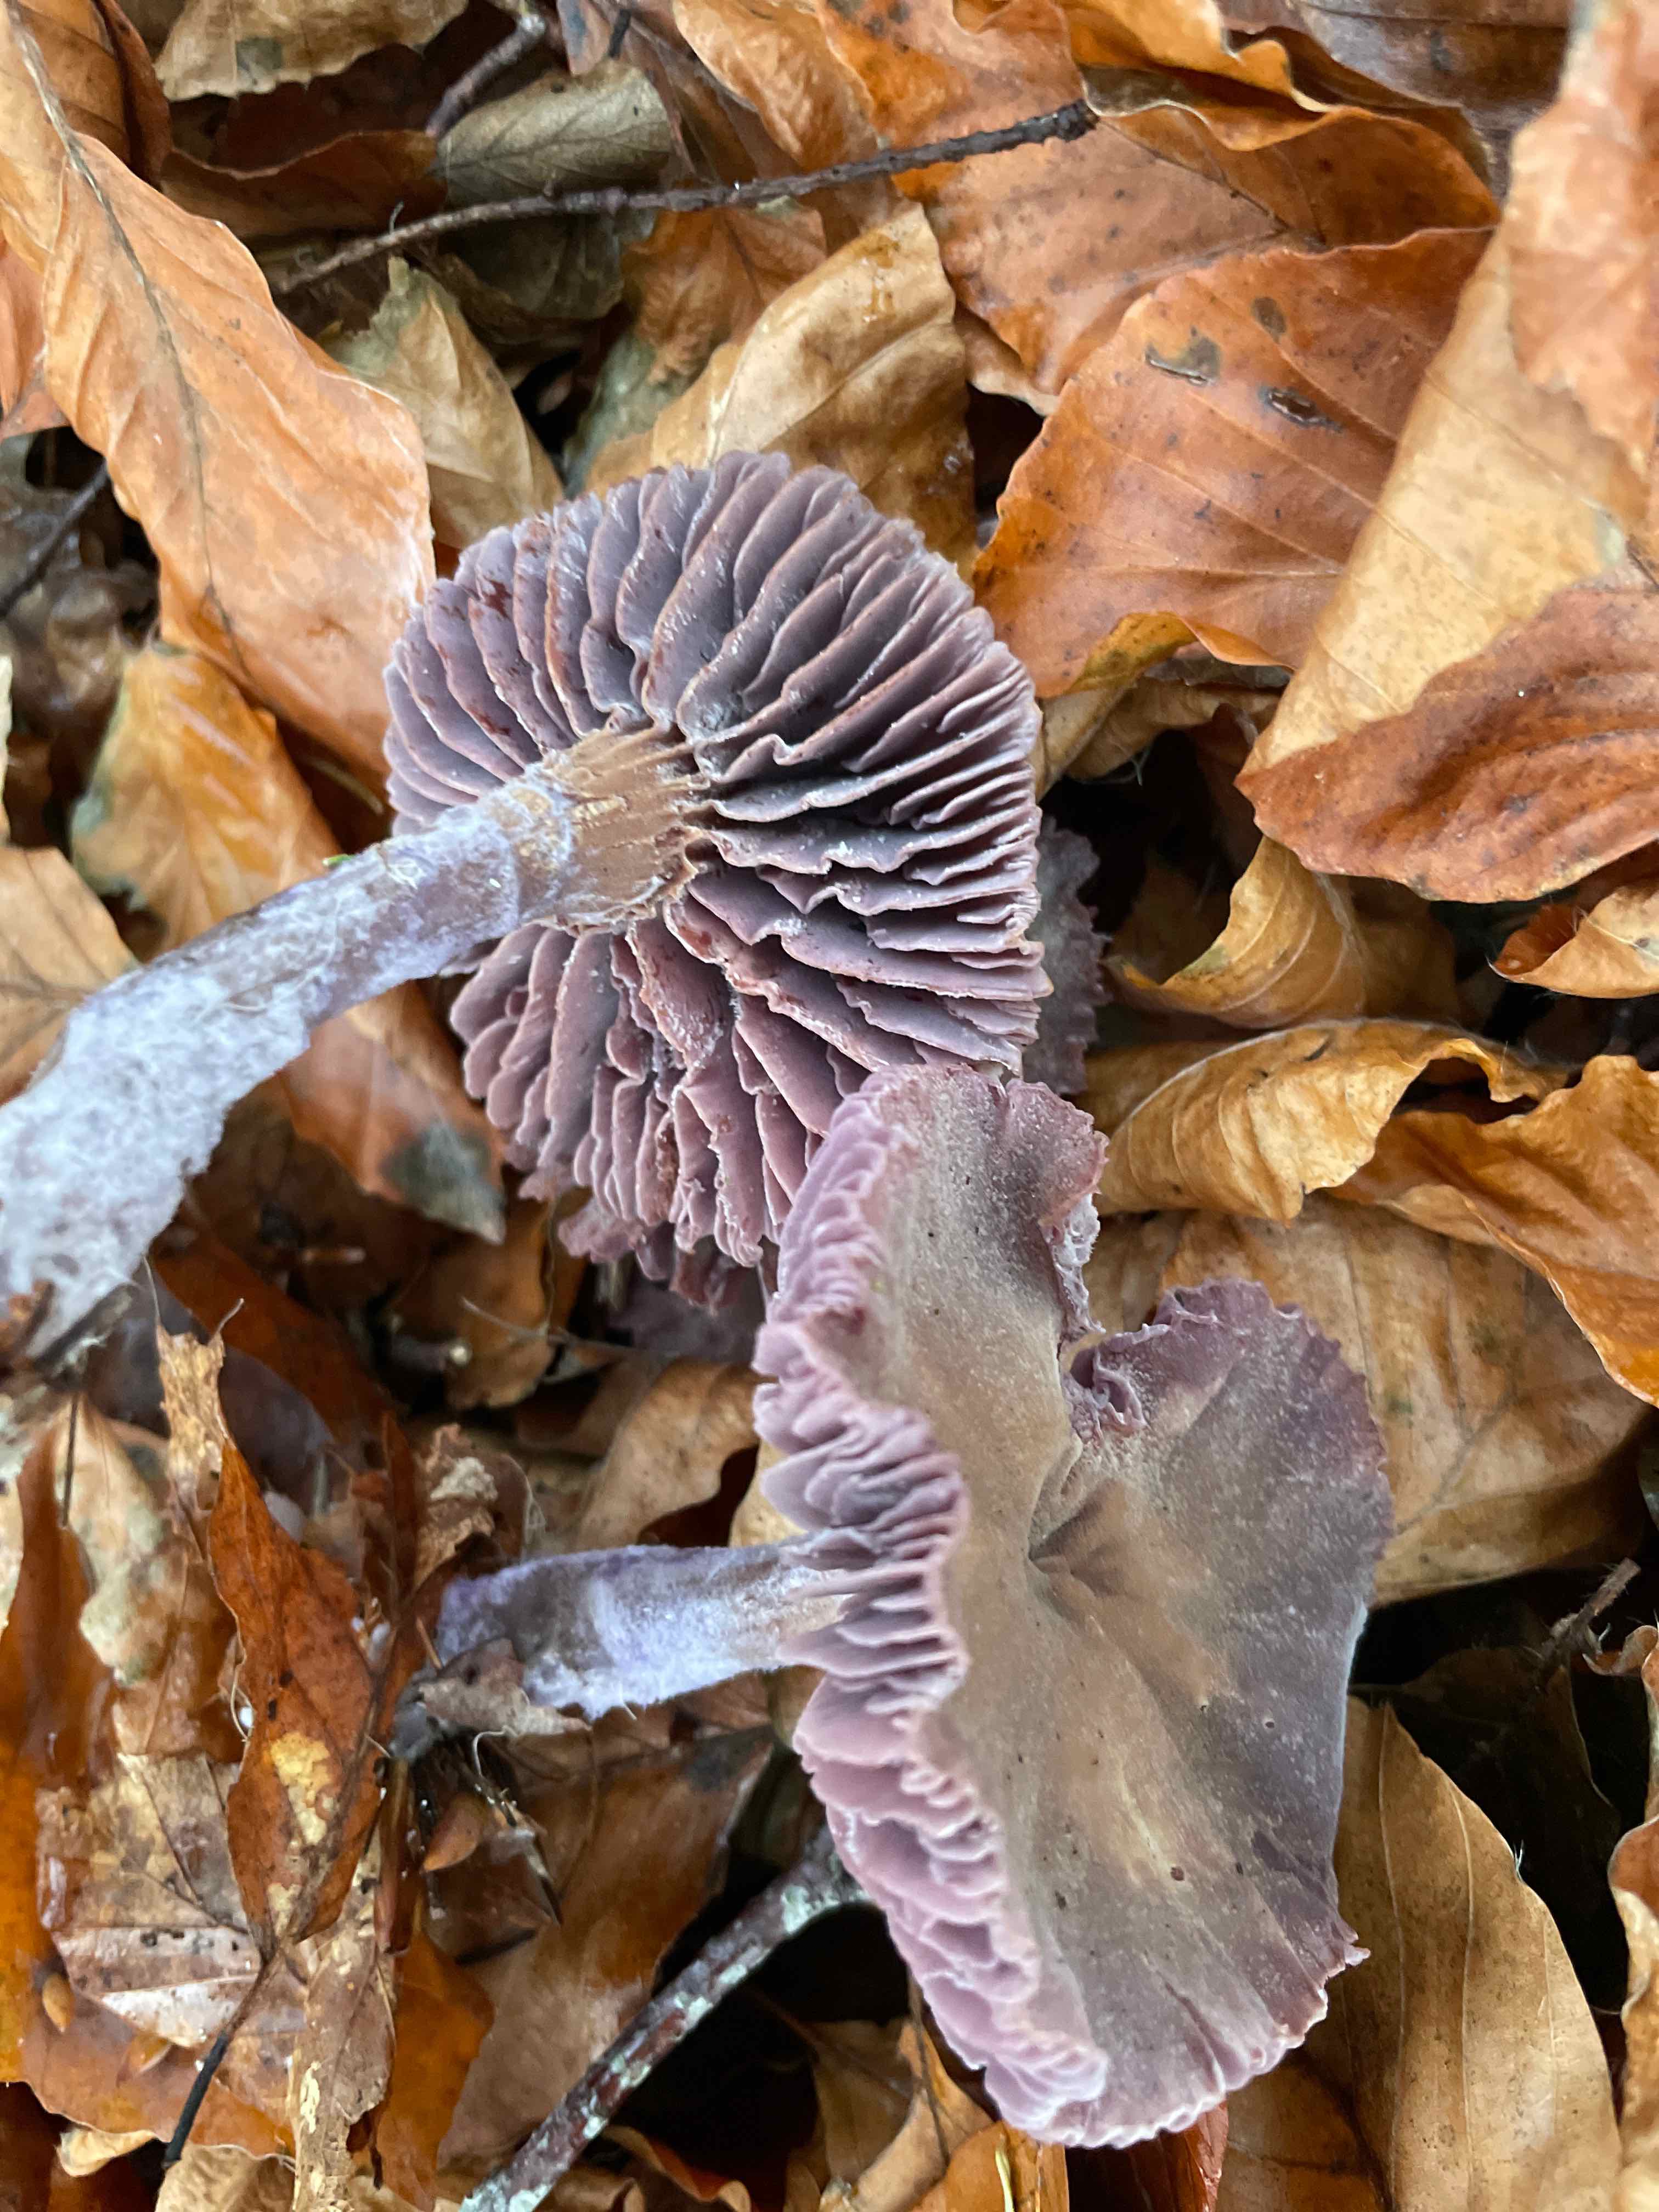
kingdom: Fungi
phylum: Basidiomycota
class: Agaricomycetes
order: Agaricales
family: Hydnangiaceae
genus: Laccaria
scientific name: Laccaria amethystina
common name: violet ametysthat
